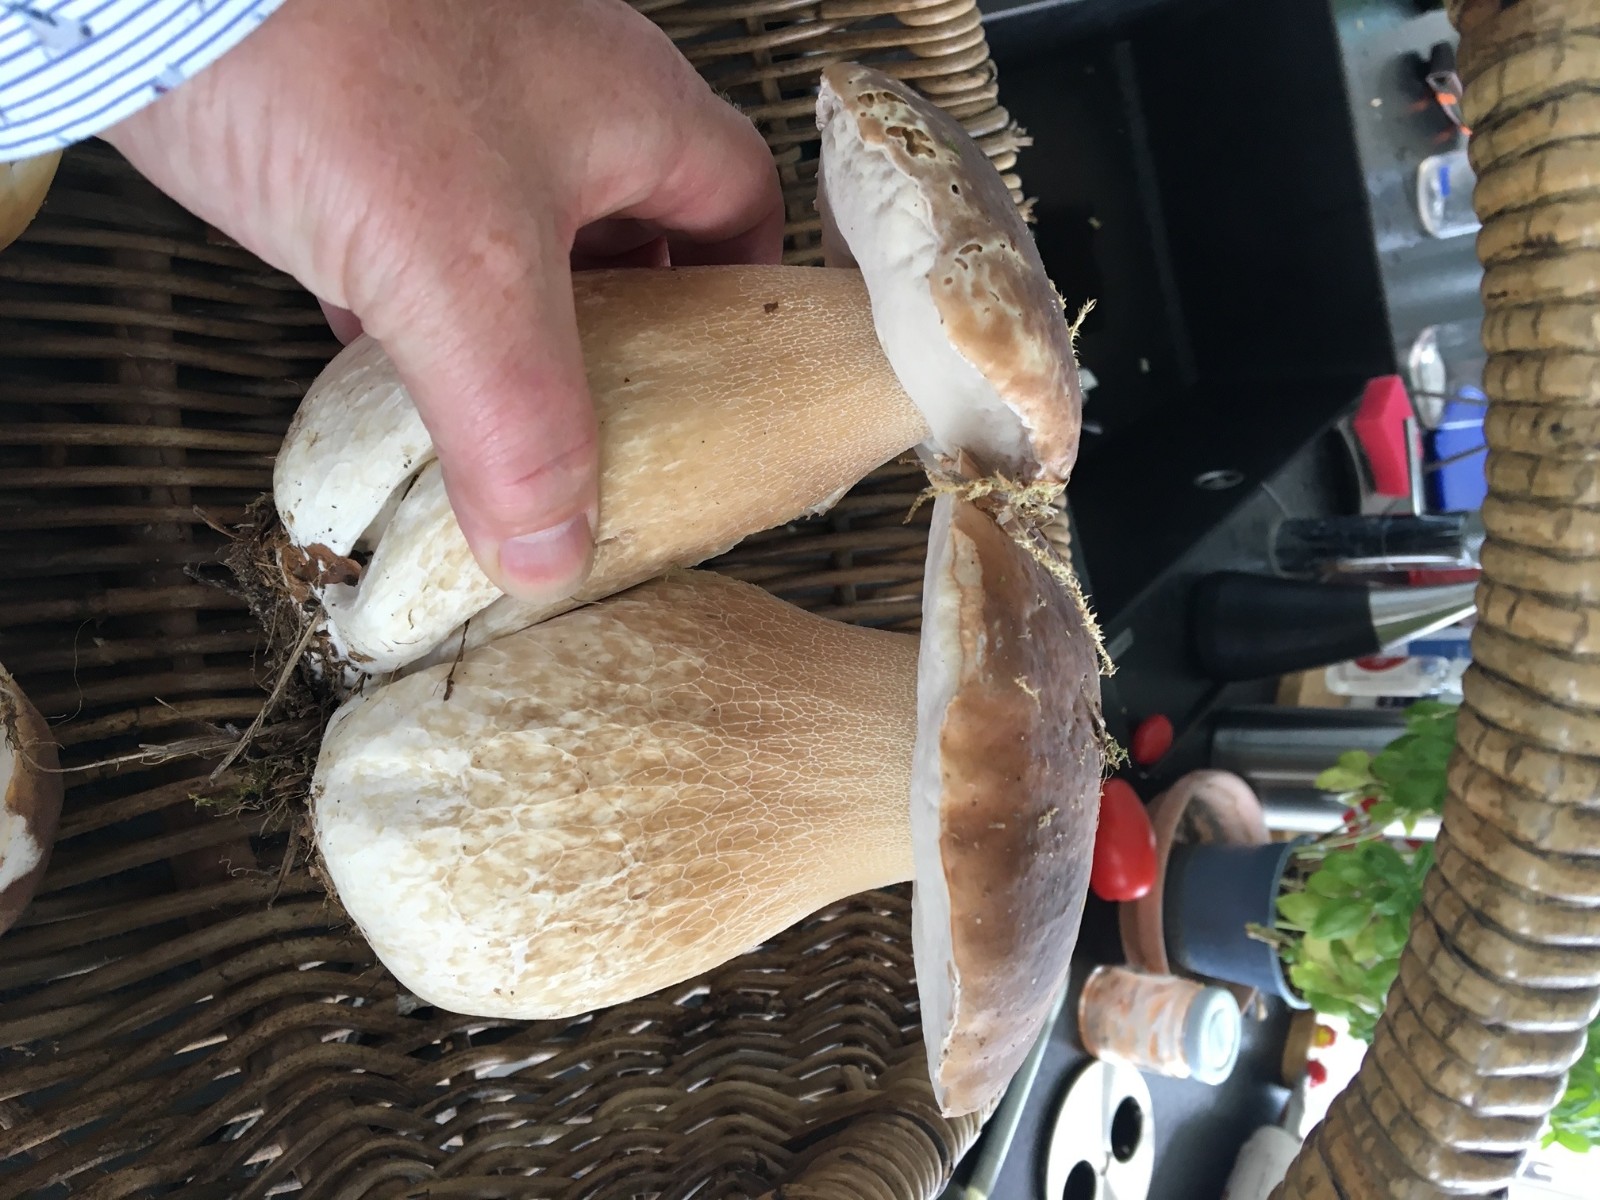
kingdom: Fungi
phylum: Basidiomycota
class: Agaricomycetes
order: Boletales
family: Boletaceae
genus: Boletus
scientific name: Boletus edulis
